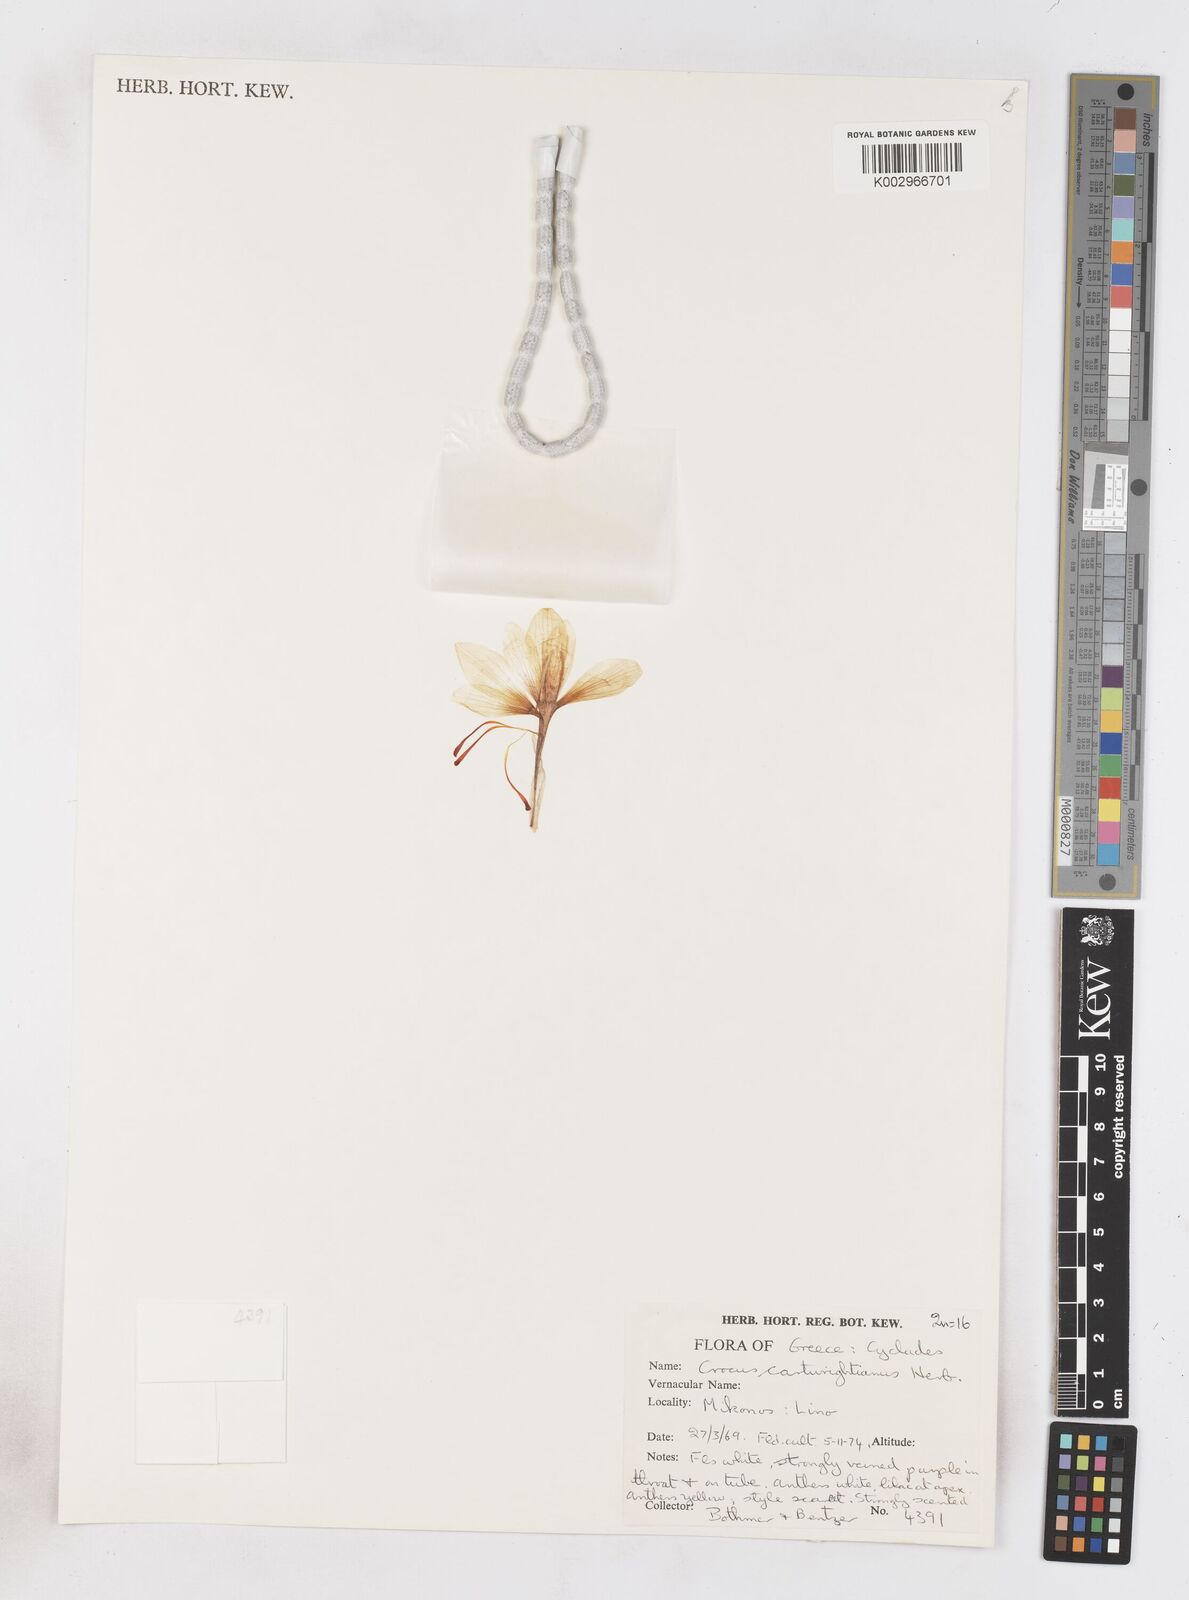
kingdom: Plantae
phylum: Tracheophyta
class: Liliopsida
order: Asparagales
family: Iridaceae
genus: Crocus
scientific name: Crocus cartwrightianus
